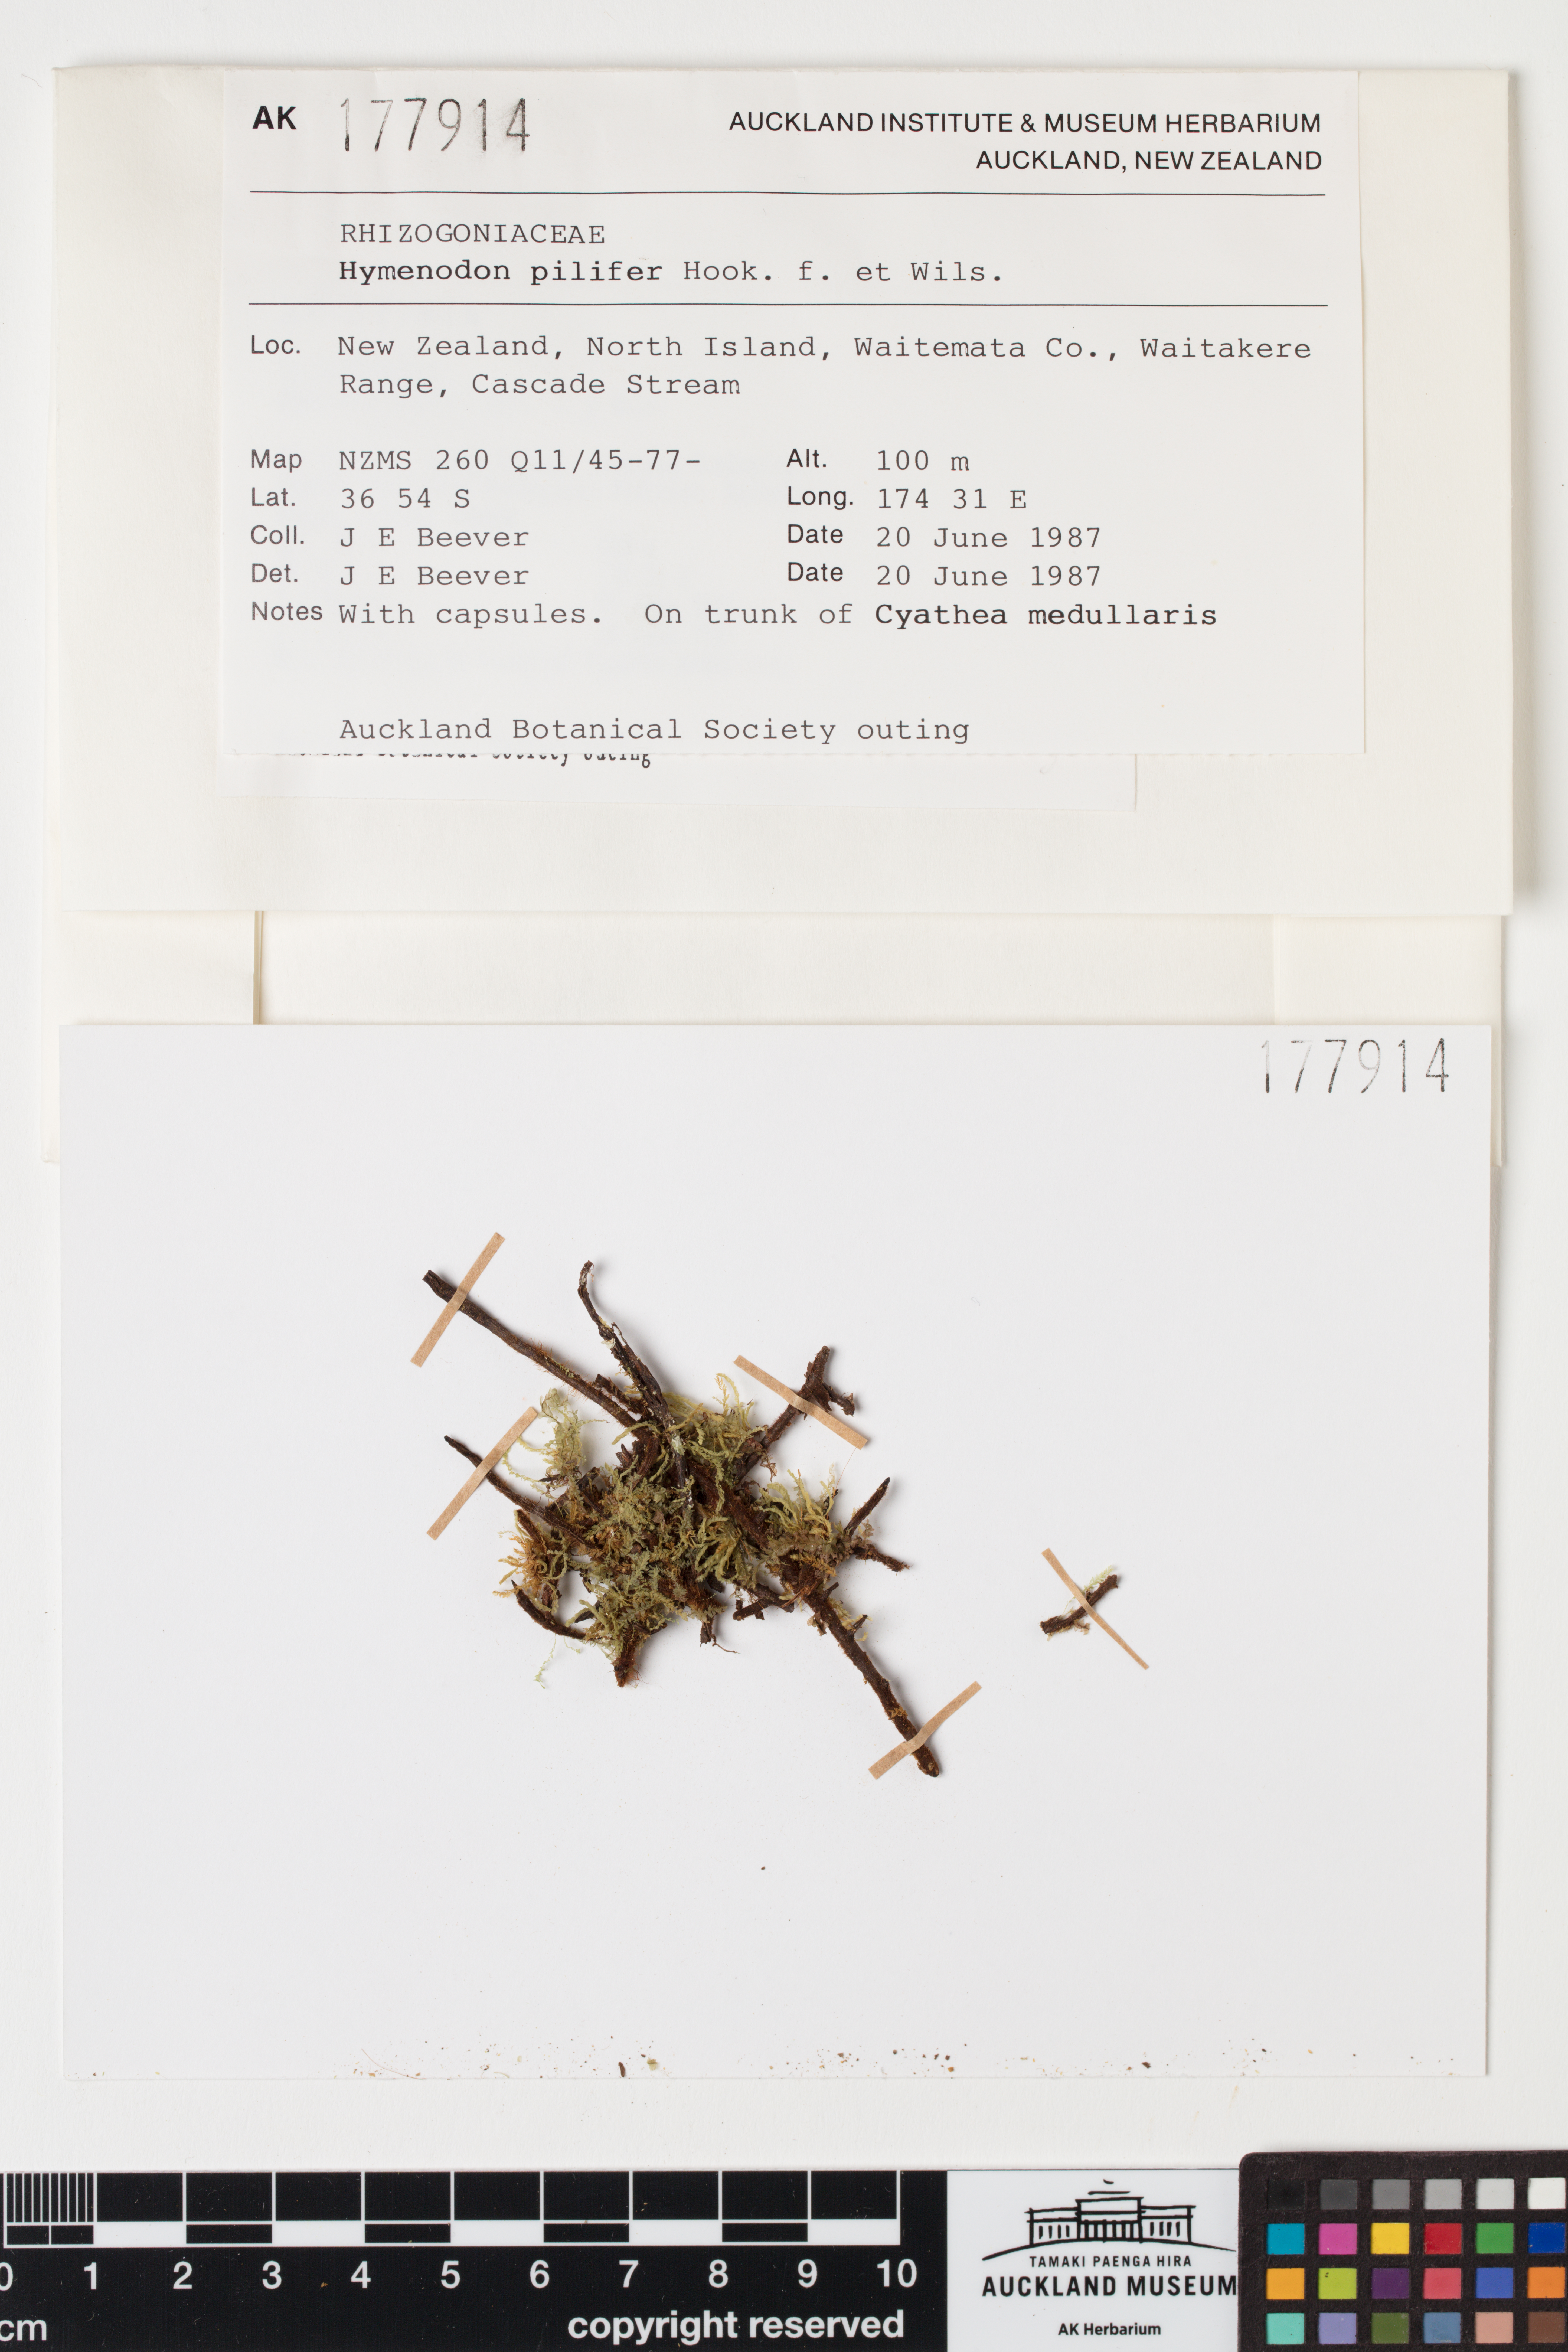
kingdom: Plantae
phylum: Bryophyta
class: Bryopsida
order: Orthodontiales
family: Orthodontiaceae
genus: Hymenodon
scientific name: Hymenodon pilifer
